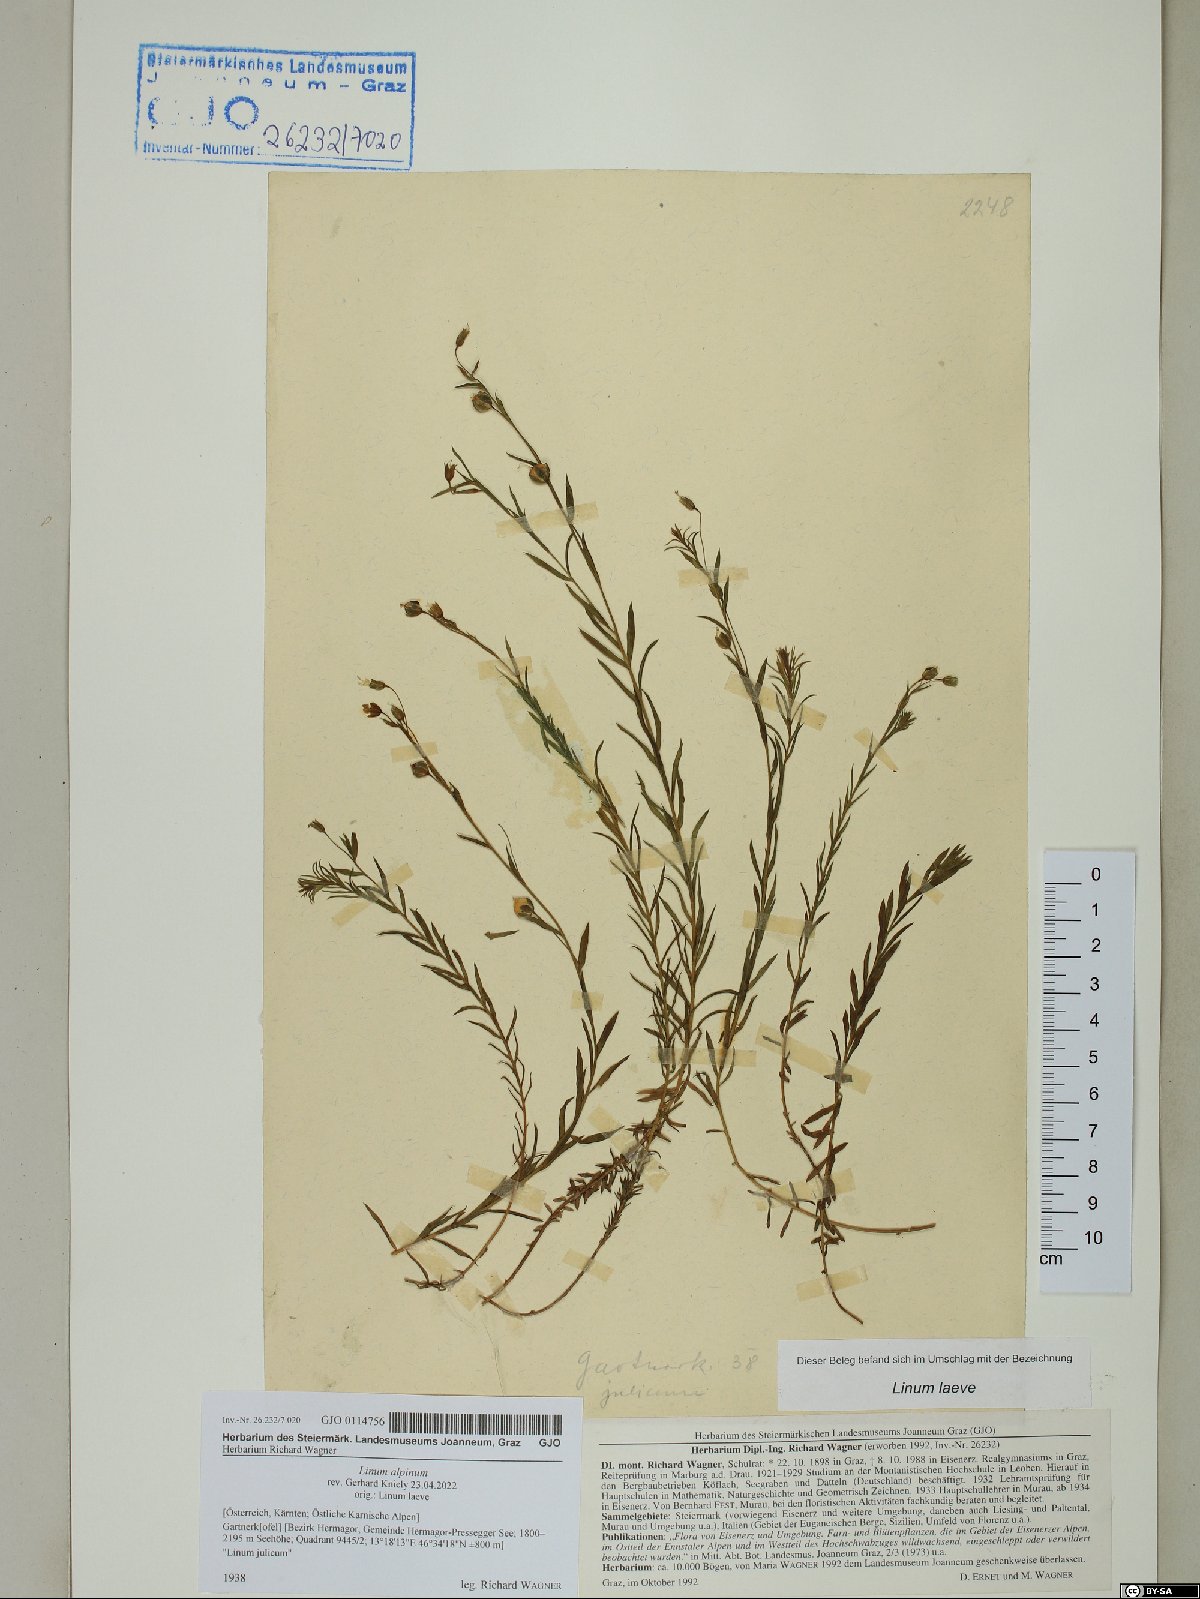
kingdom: Plantae
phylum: Tracheophyta
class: Magnoliopsida
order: Malpighiales
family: Linaceae
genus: Linum
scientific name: Linum alpinum
